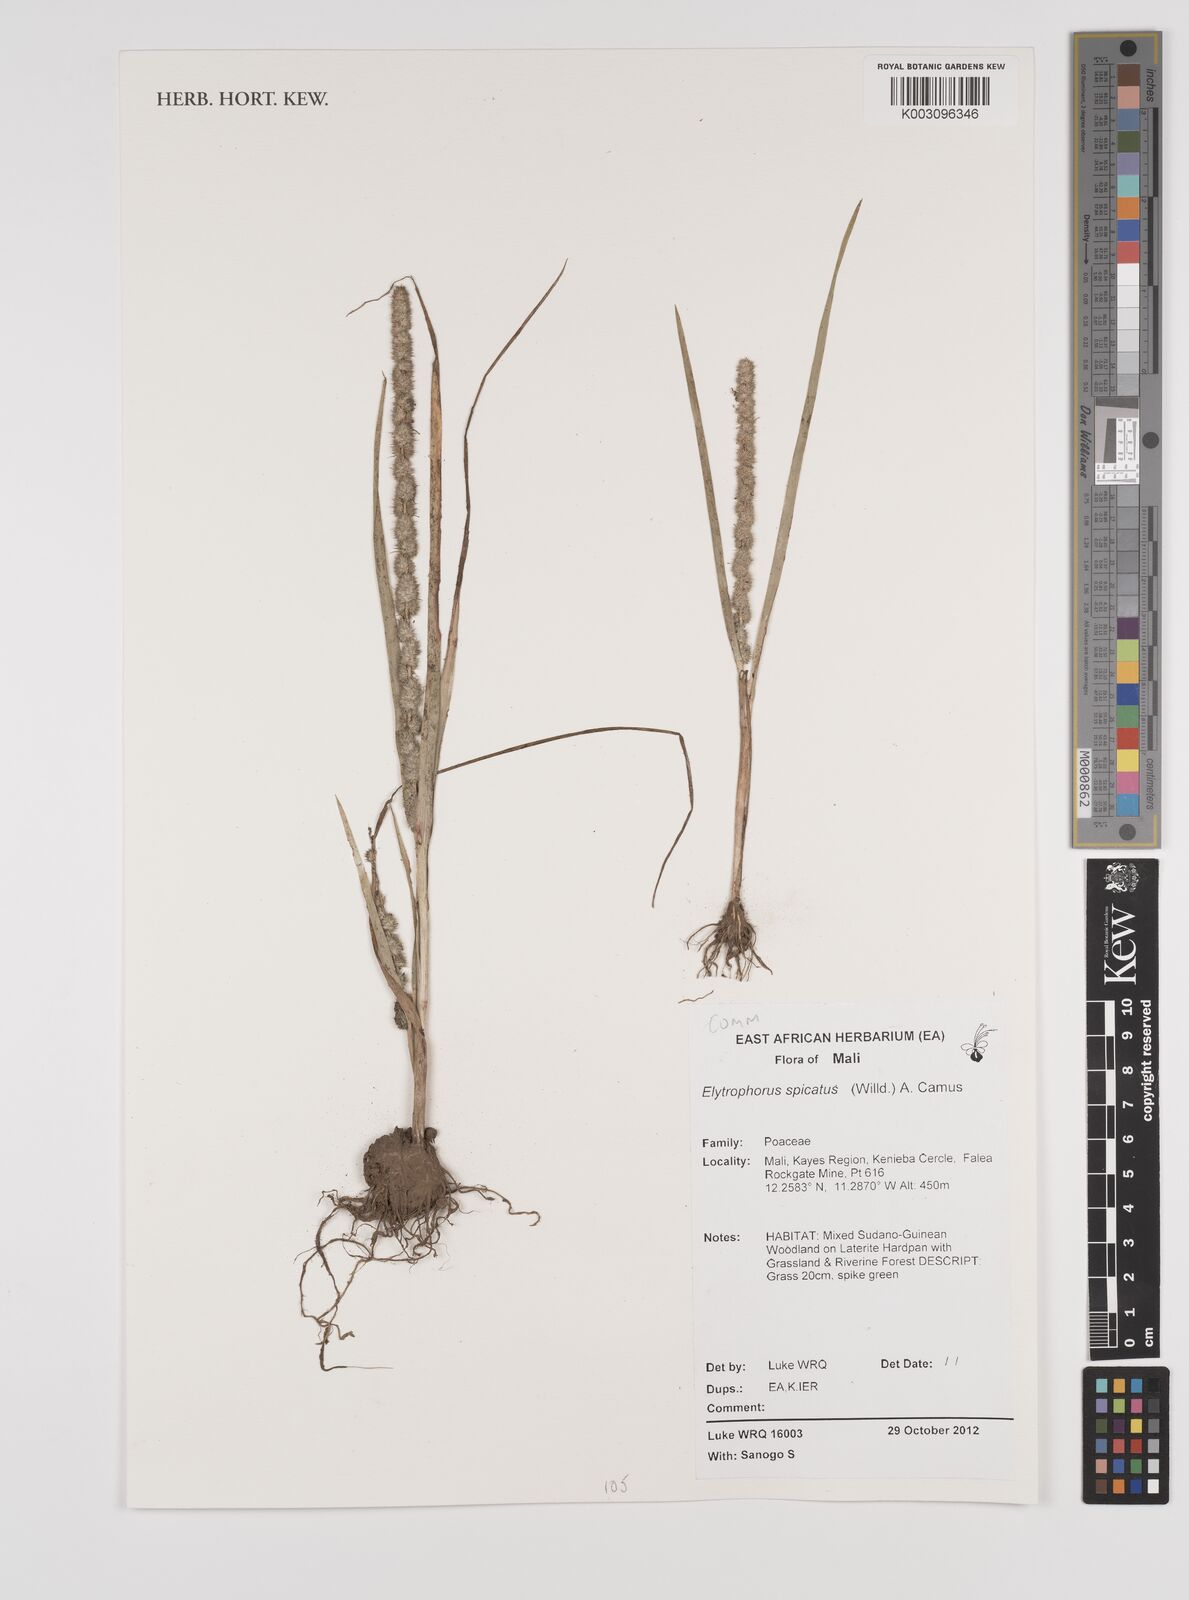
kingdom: Plantae
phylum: Tracheophyta
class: Liliopsida
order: Poales
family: Poaceae
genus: Elytrophorus
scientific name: Elytrophorus spicatus
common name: Spike grass
